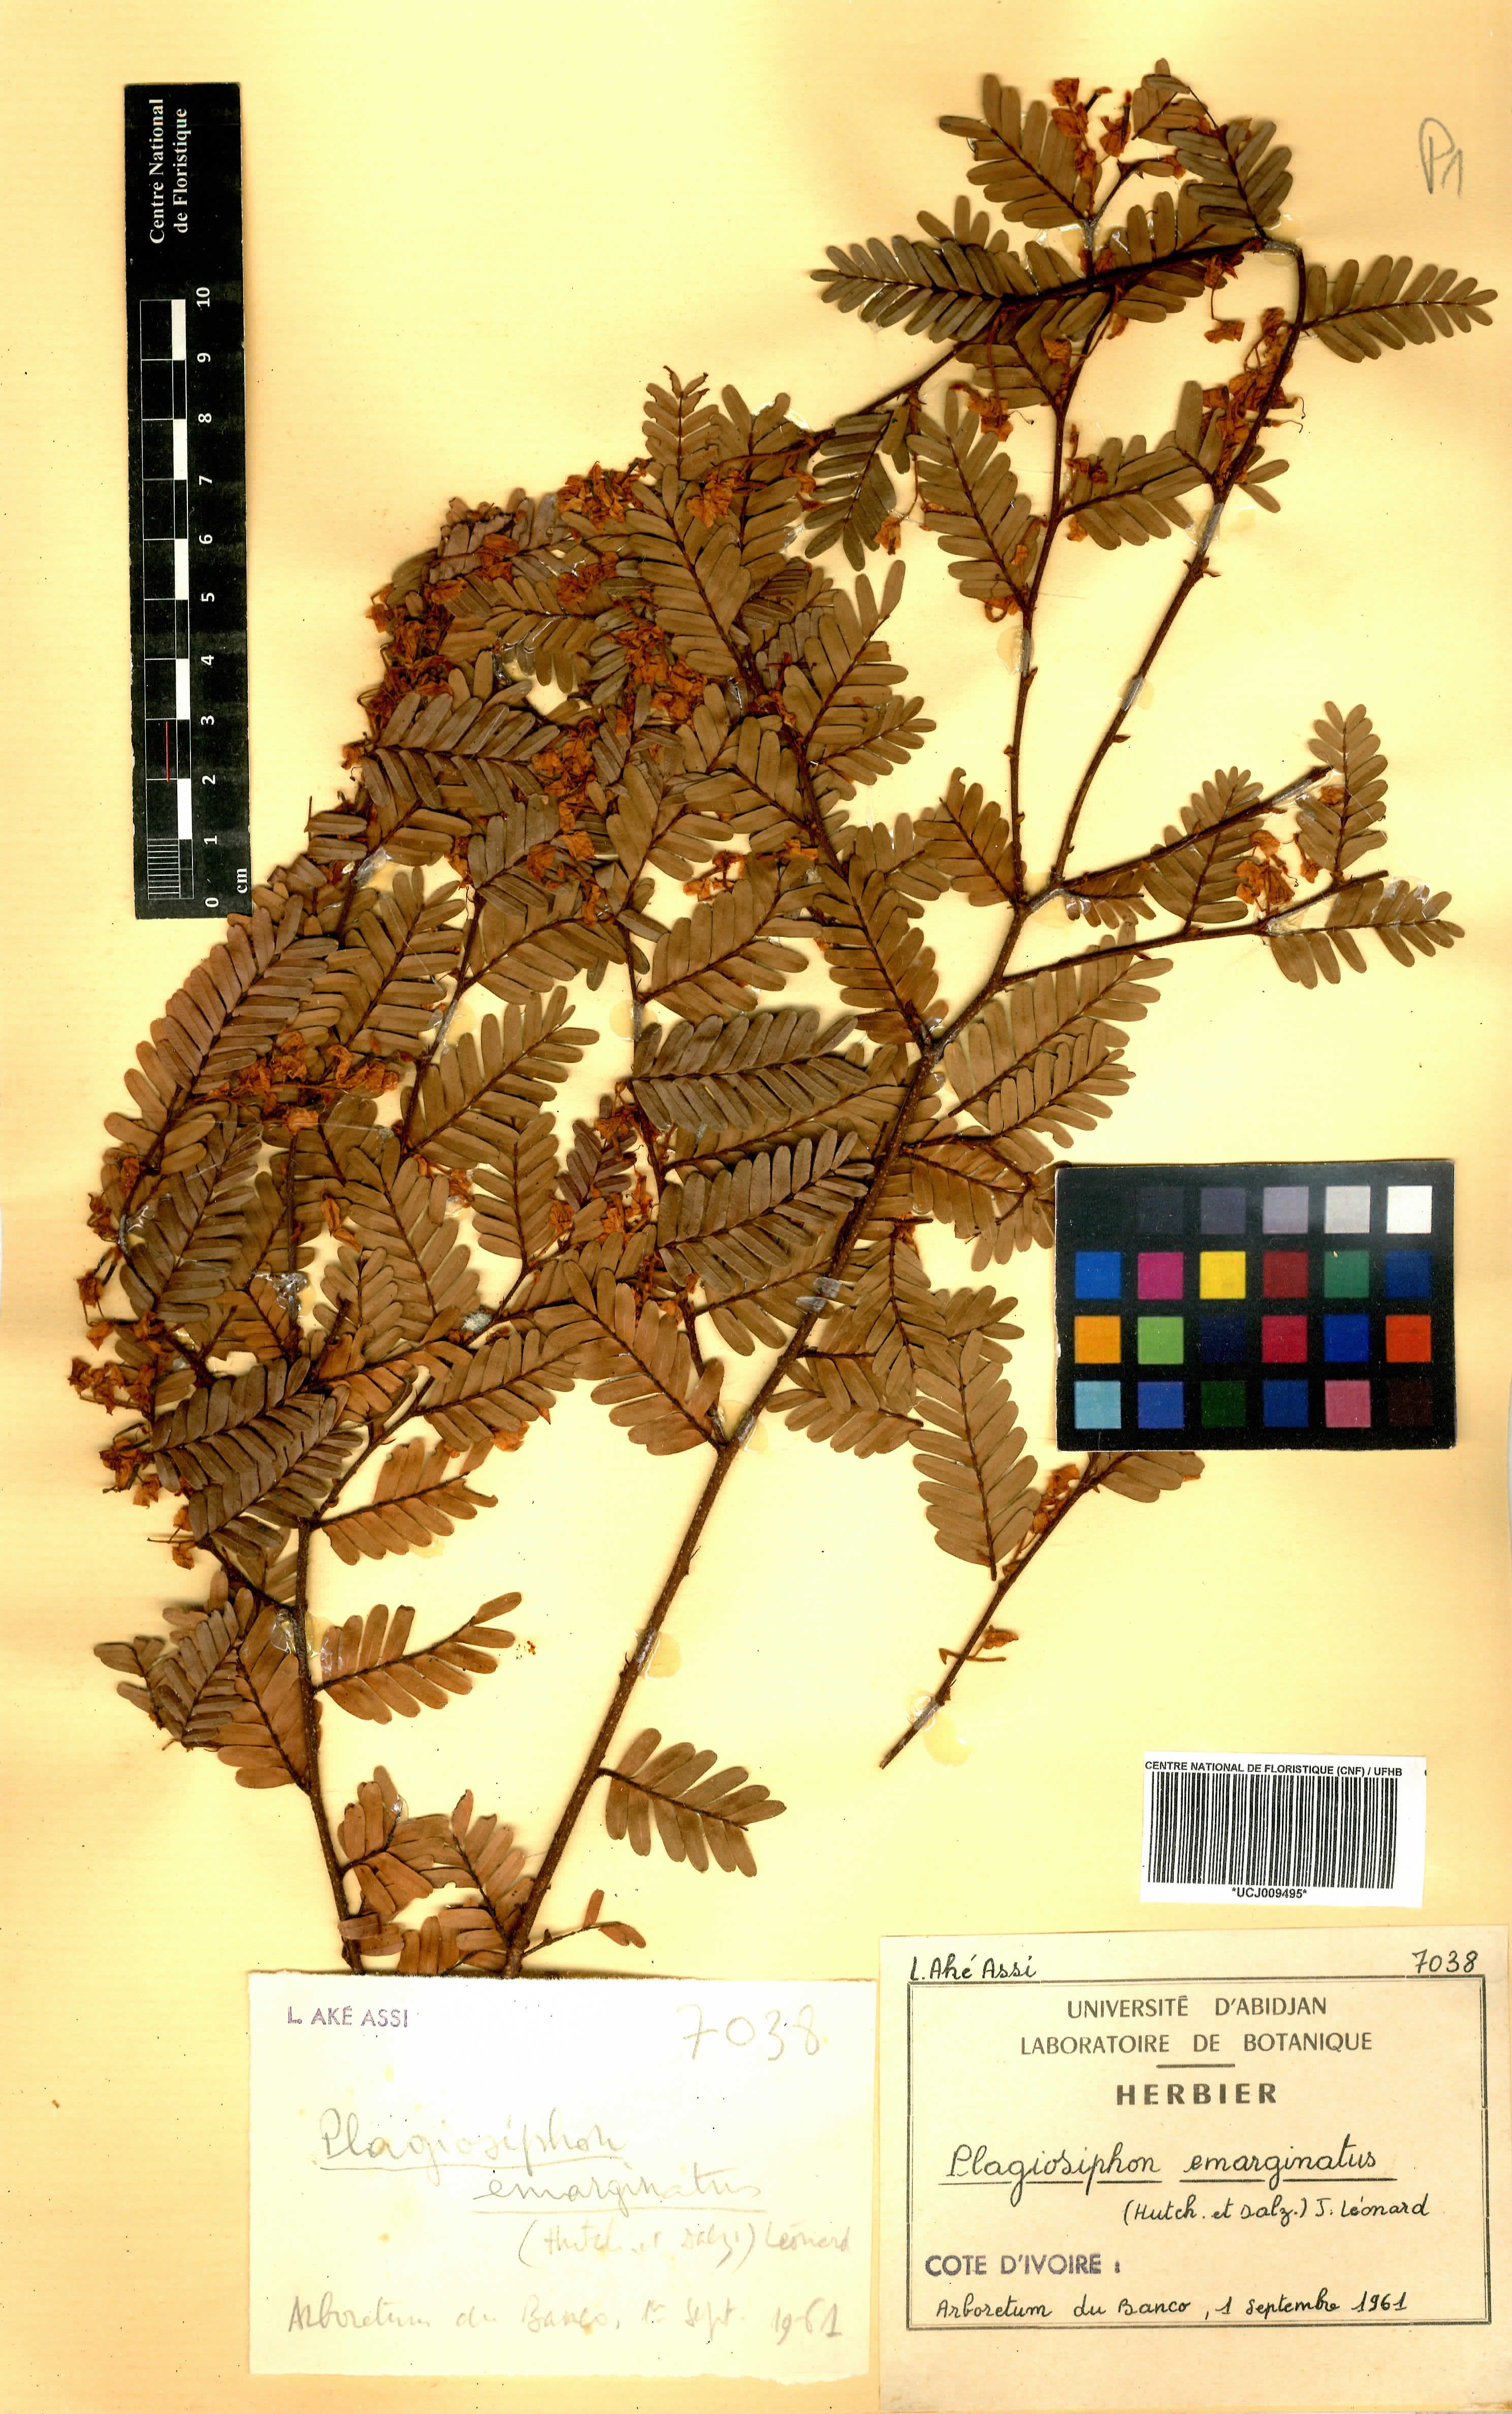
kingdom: Plantae
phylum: Tracheophyta
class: Magnoliopsida
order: Fabales
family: Fabaceae
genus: Plagiosiphon
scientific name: Plagiosiphon emarginatus
